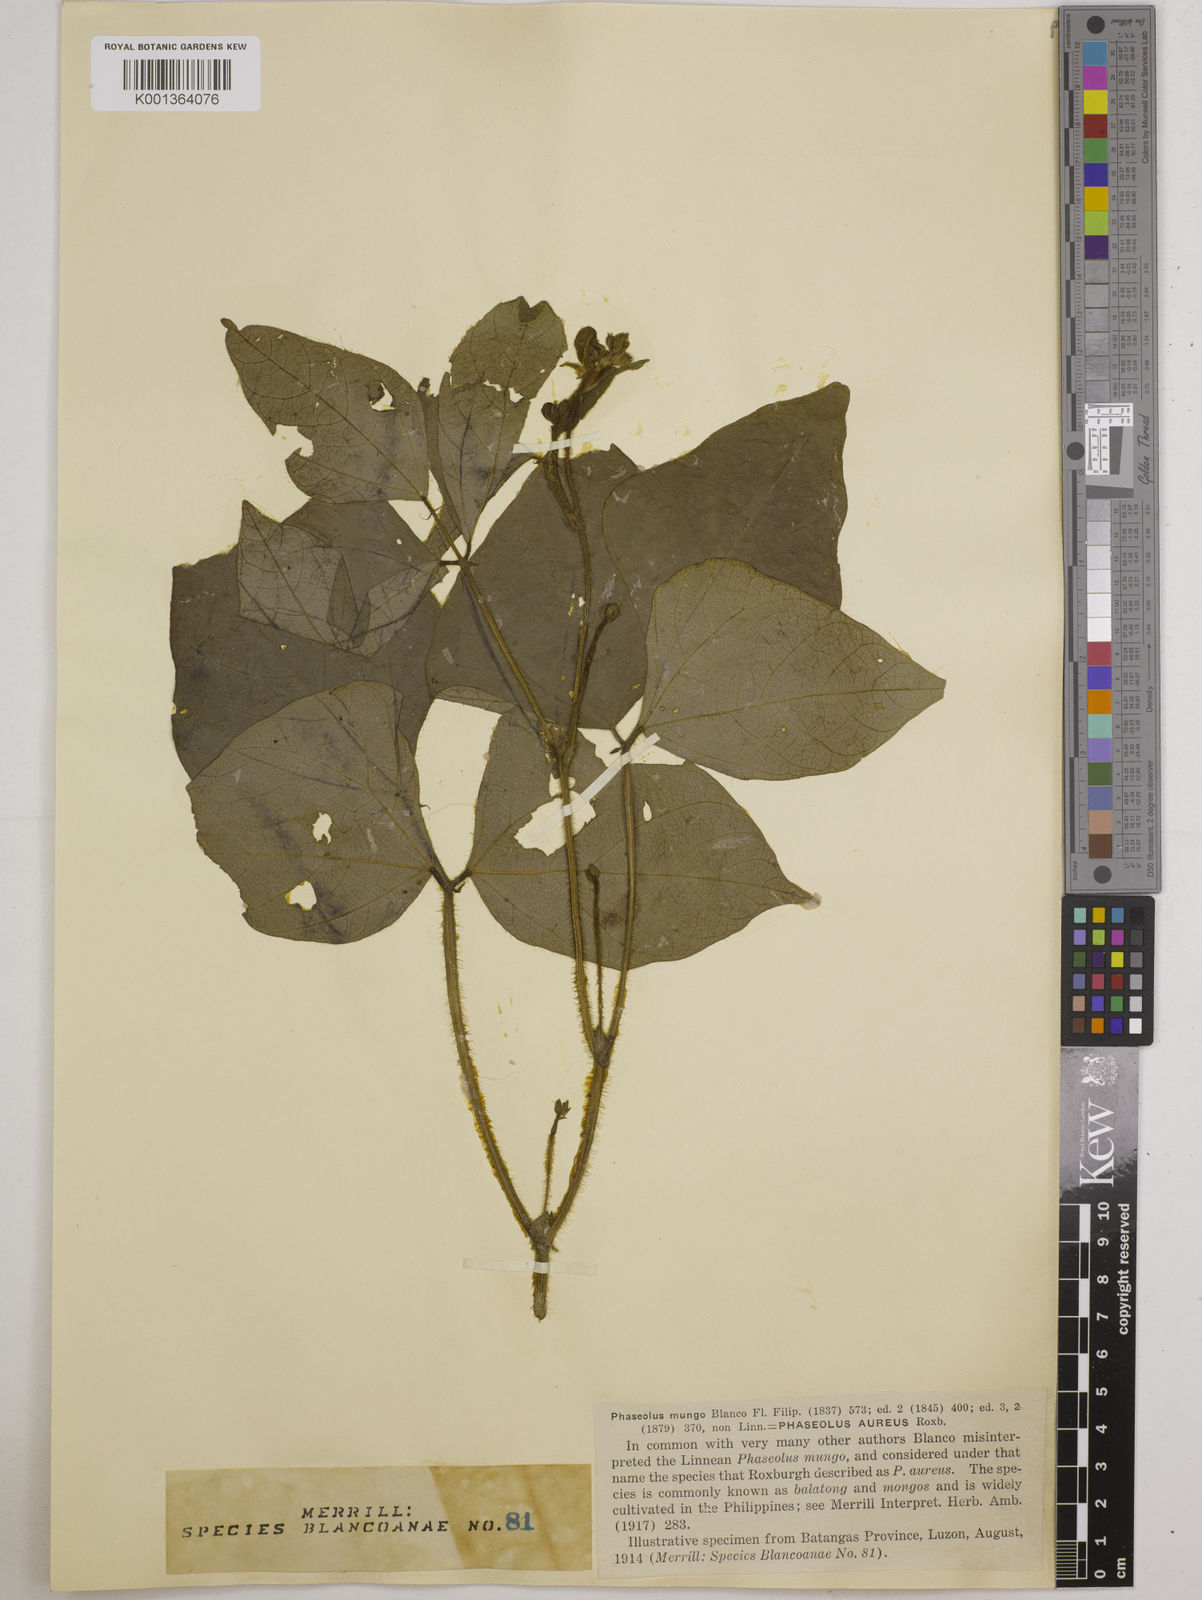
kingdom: Plantae
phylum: Tracheophyta
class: Magnoliopsida
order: Fabales
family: Fabaceae
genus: Vigna
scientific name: Vigna radiata
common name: Mung-bean
